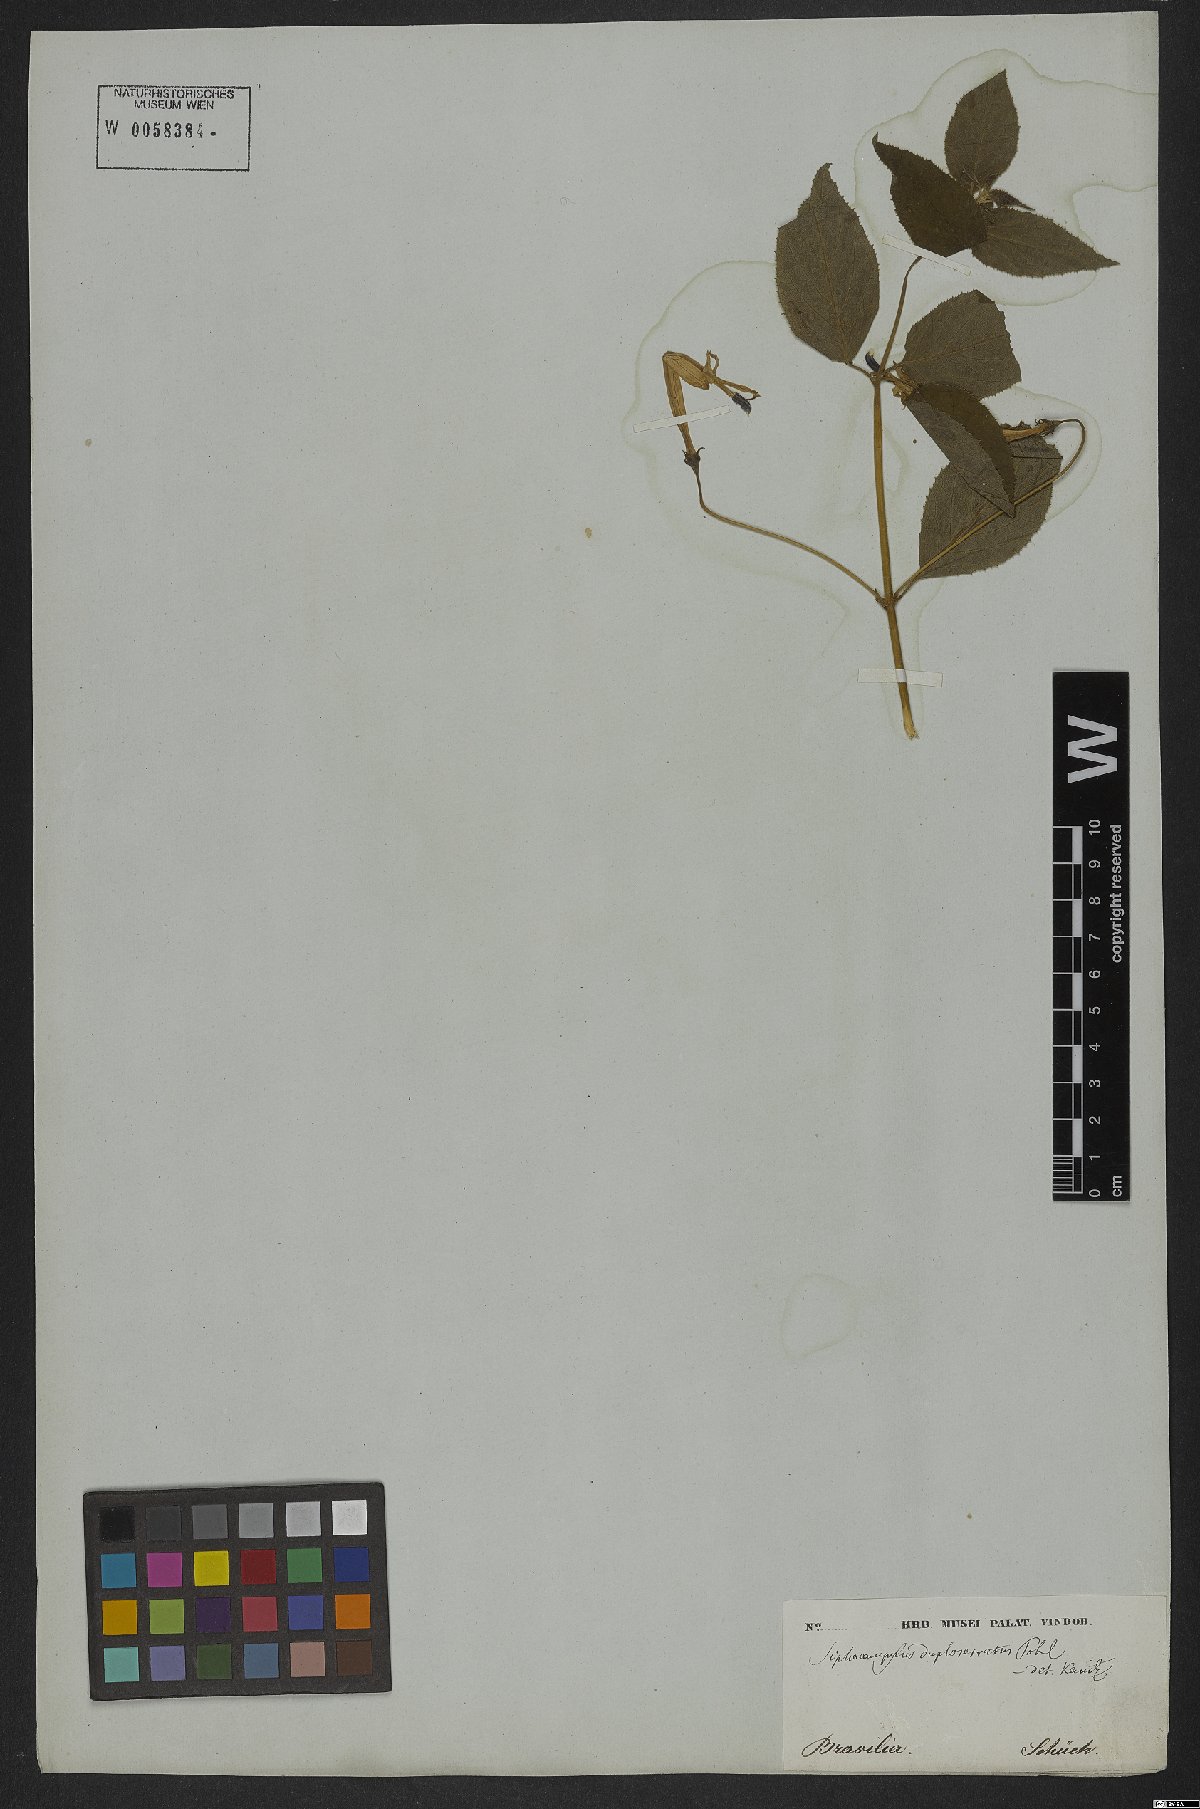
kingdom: Plantae
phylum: Tracheophyta
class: Magnoliopsida
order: Asterales
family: Campanulaceae
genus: Siphocampylus
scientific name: Siphocampylus duploserratus
